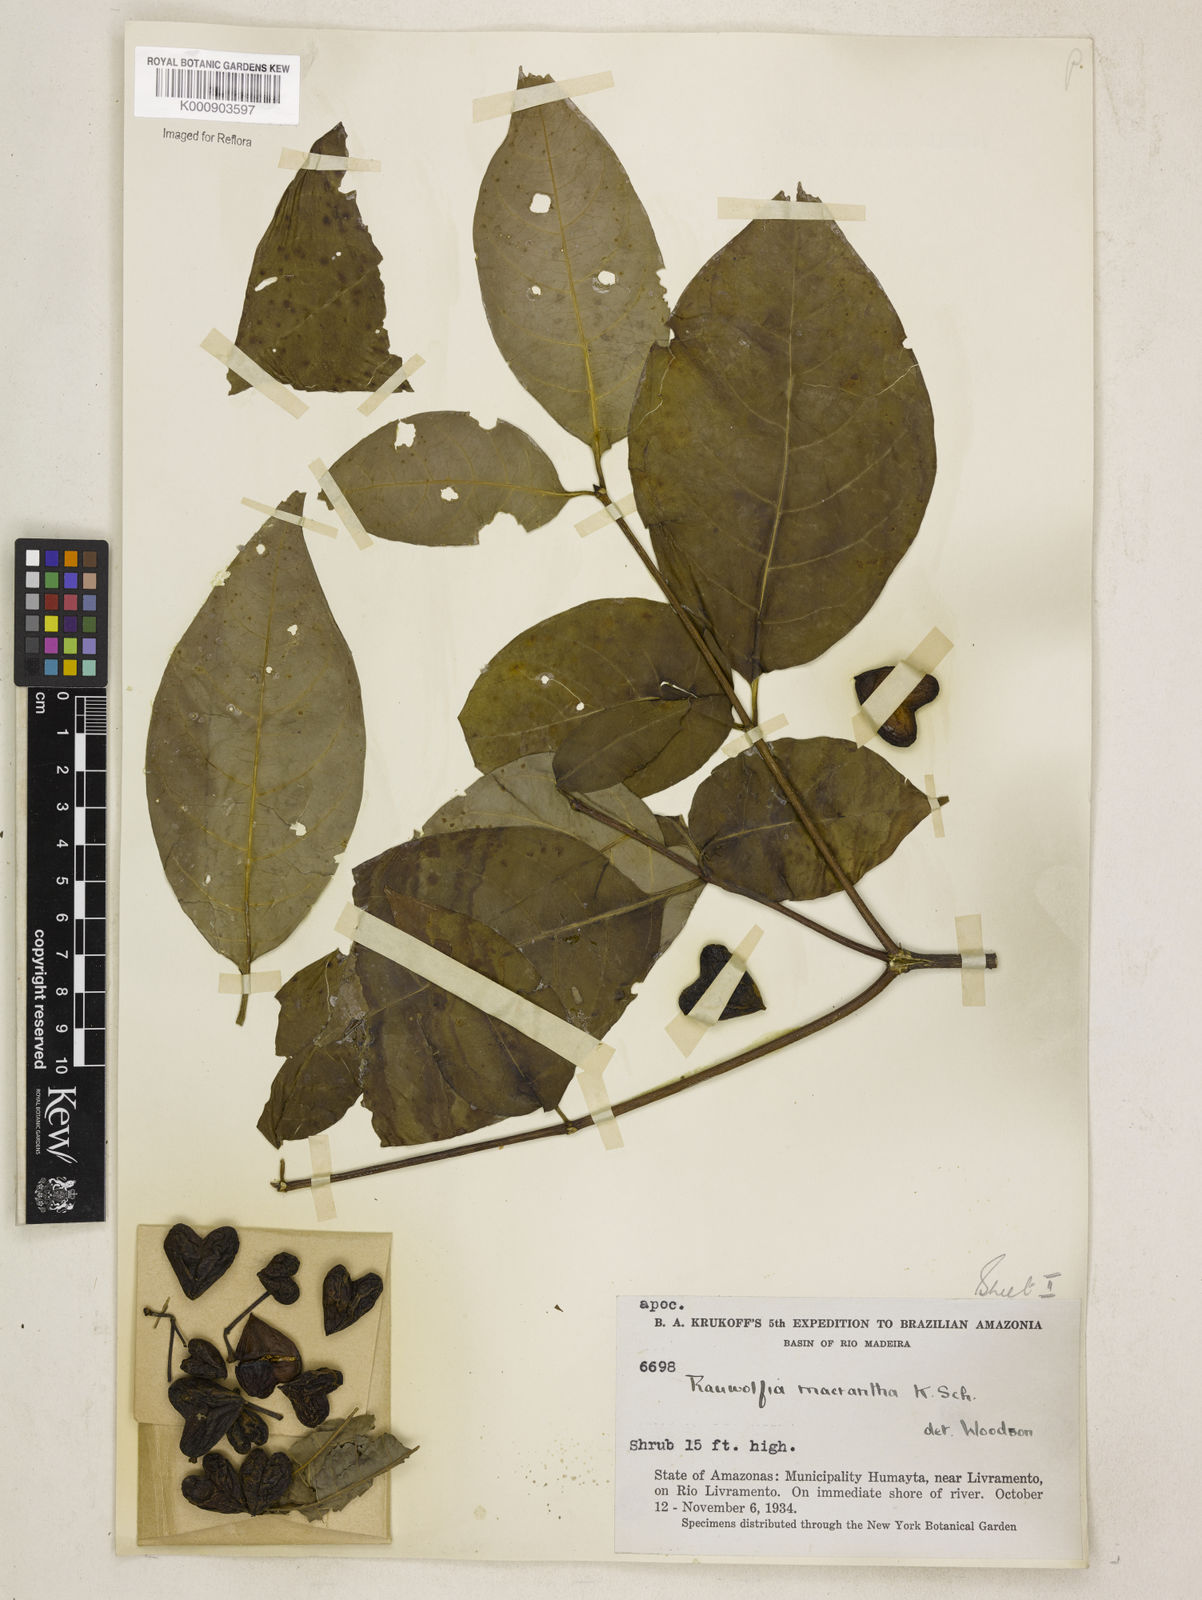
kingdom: Plantae
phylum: Tracheophyta
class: Magnoliopsida
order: Gentianales
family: Apocynaceae
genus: Rauvolfia
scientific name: Rauvolfia macrantha
